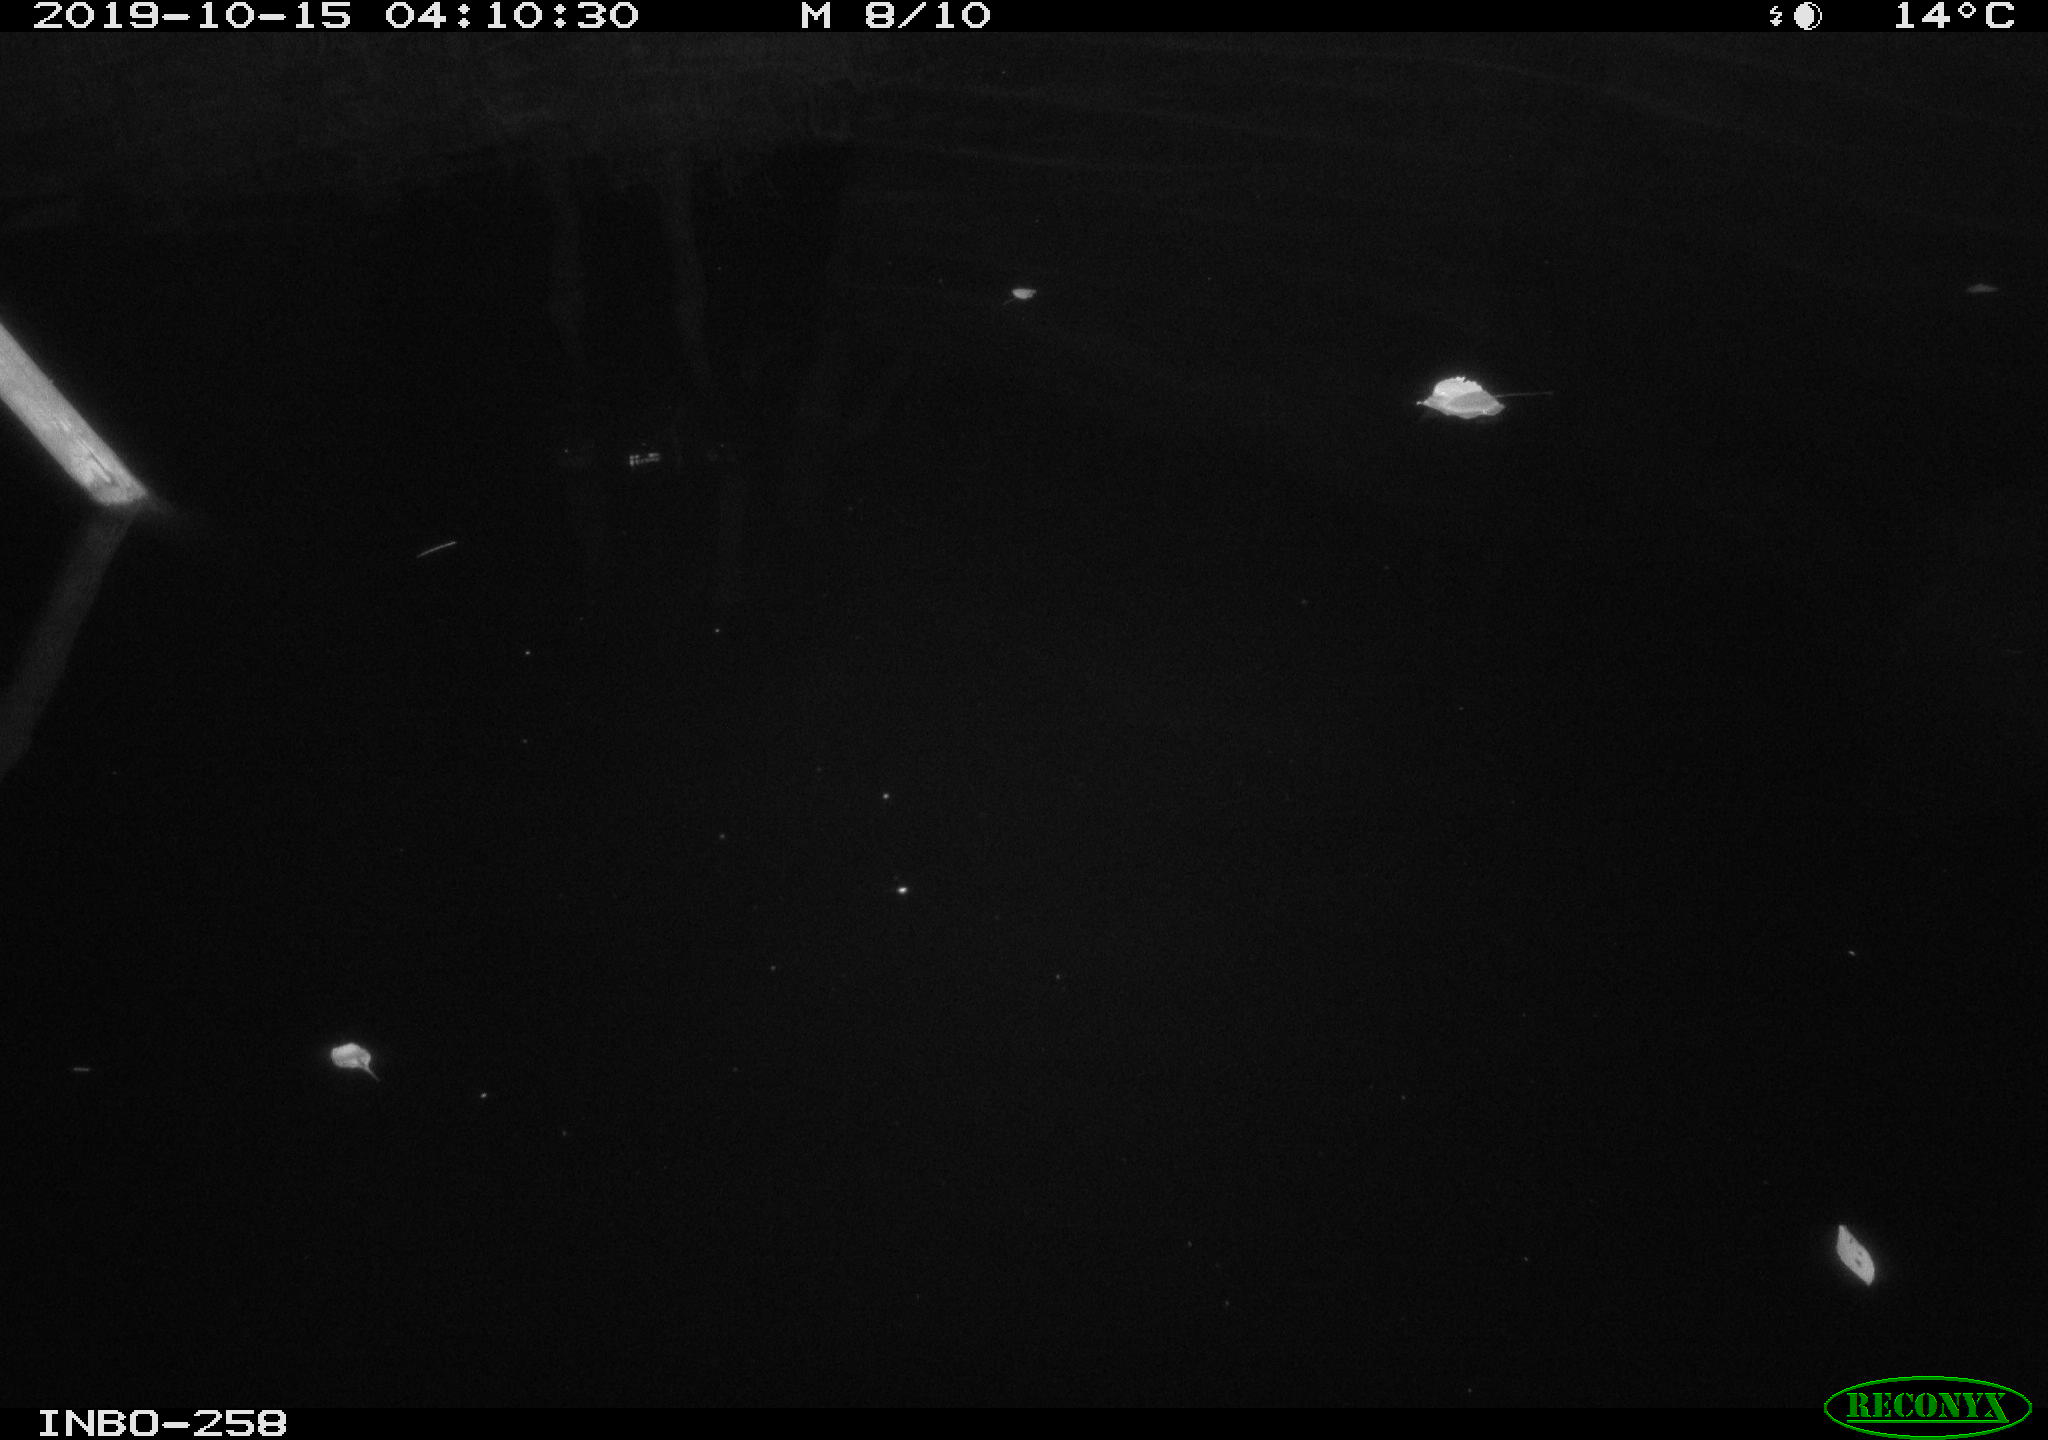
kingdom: Animalia
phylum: Chordata
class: Aves
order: Anseriformes
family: Anatidae
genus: Anas
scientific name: Anas platyrhynchos
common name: Mallard
